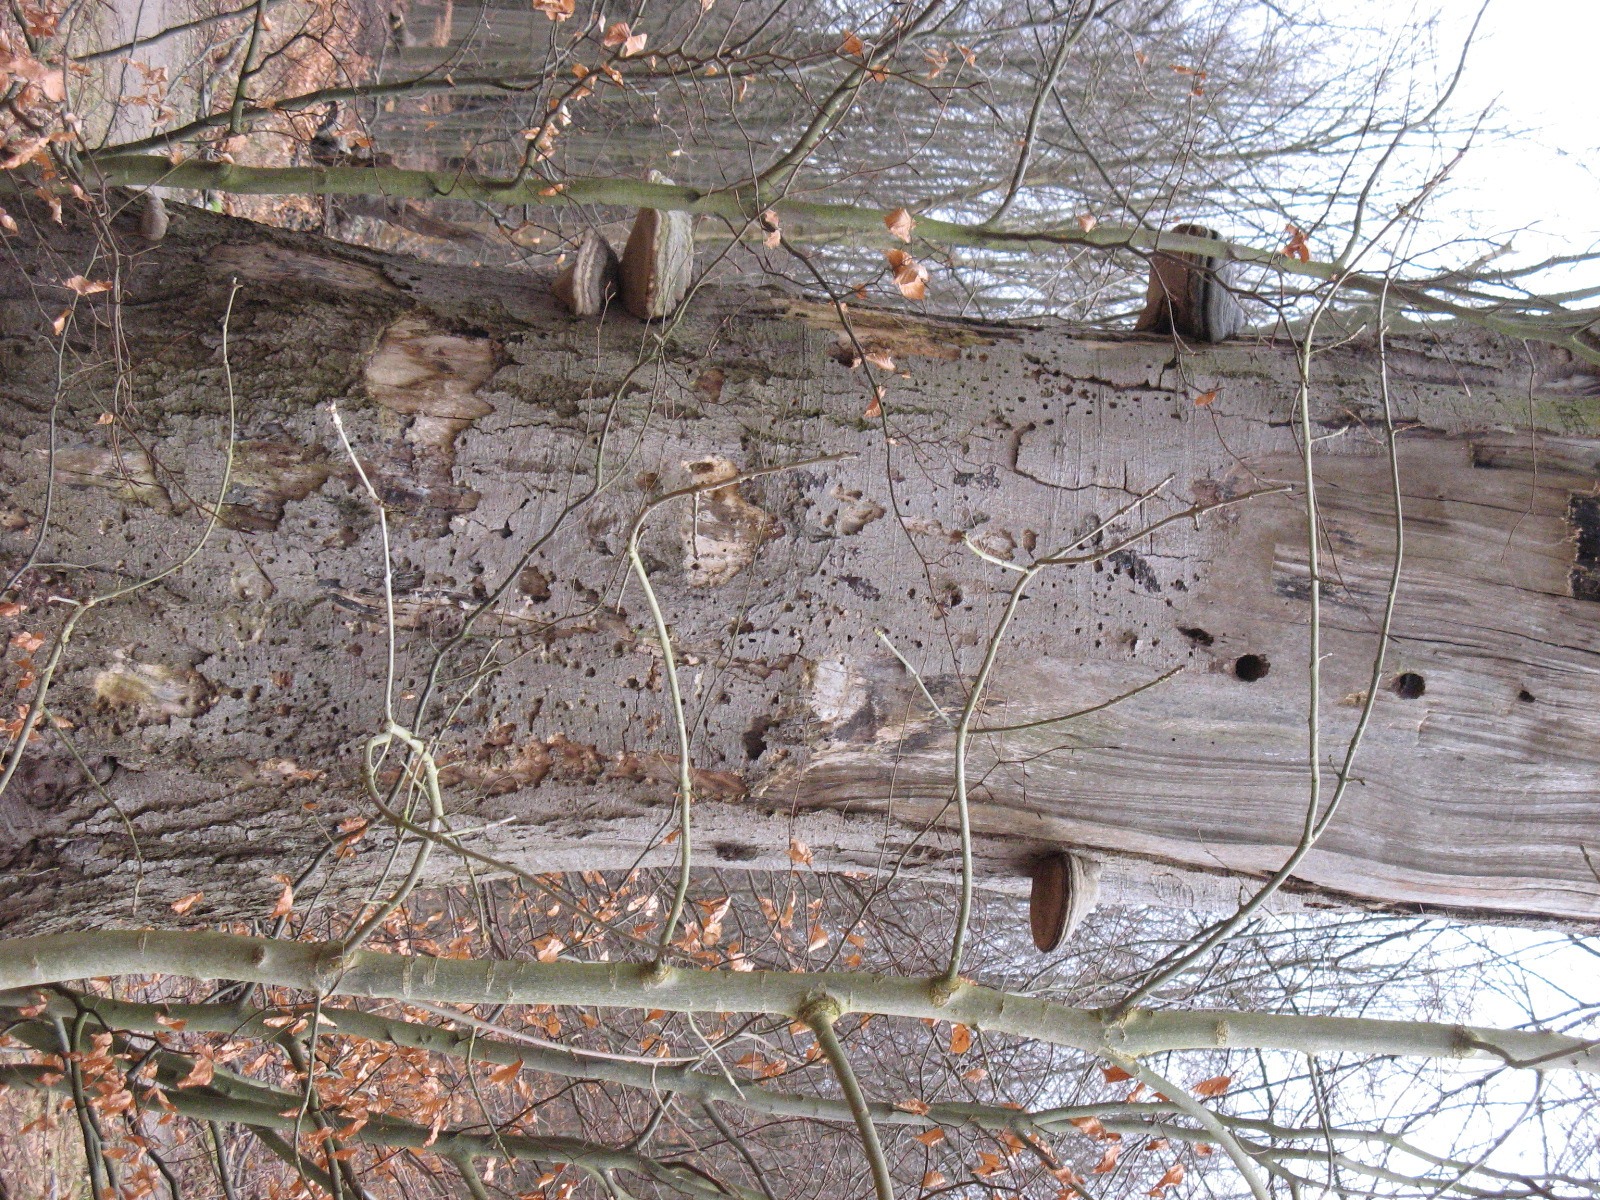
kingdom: Fungi
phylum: Basidiomycota
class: Agaricomycetes
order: Polyporales
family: Polyporaceae
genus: Fomes
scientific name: Fomes fomentarius
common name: tøndersvamp
